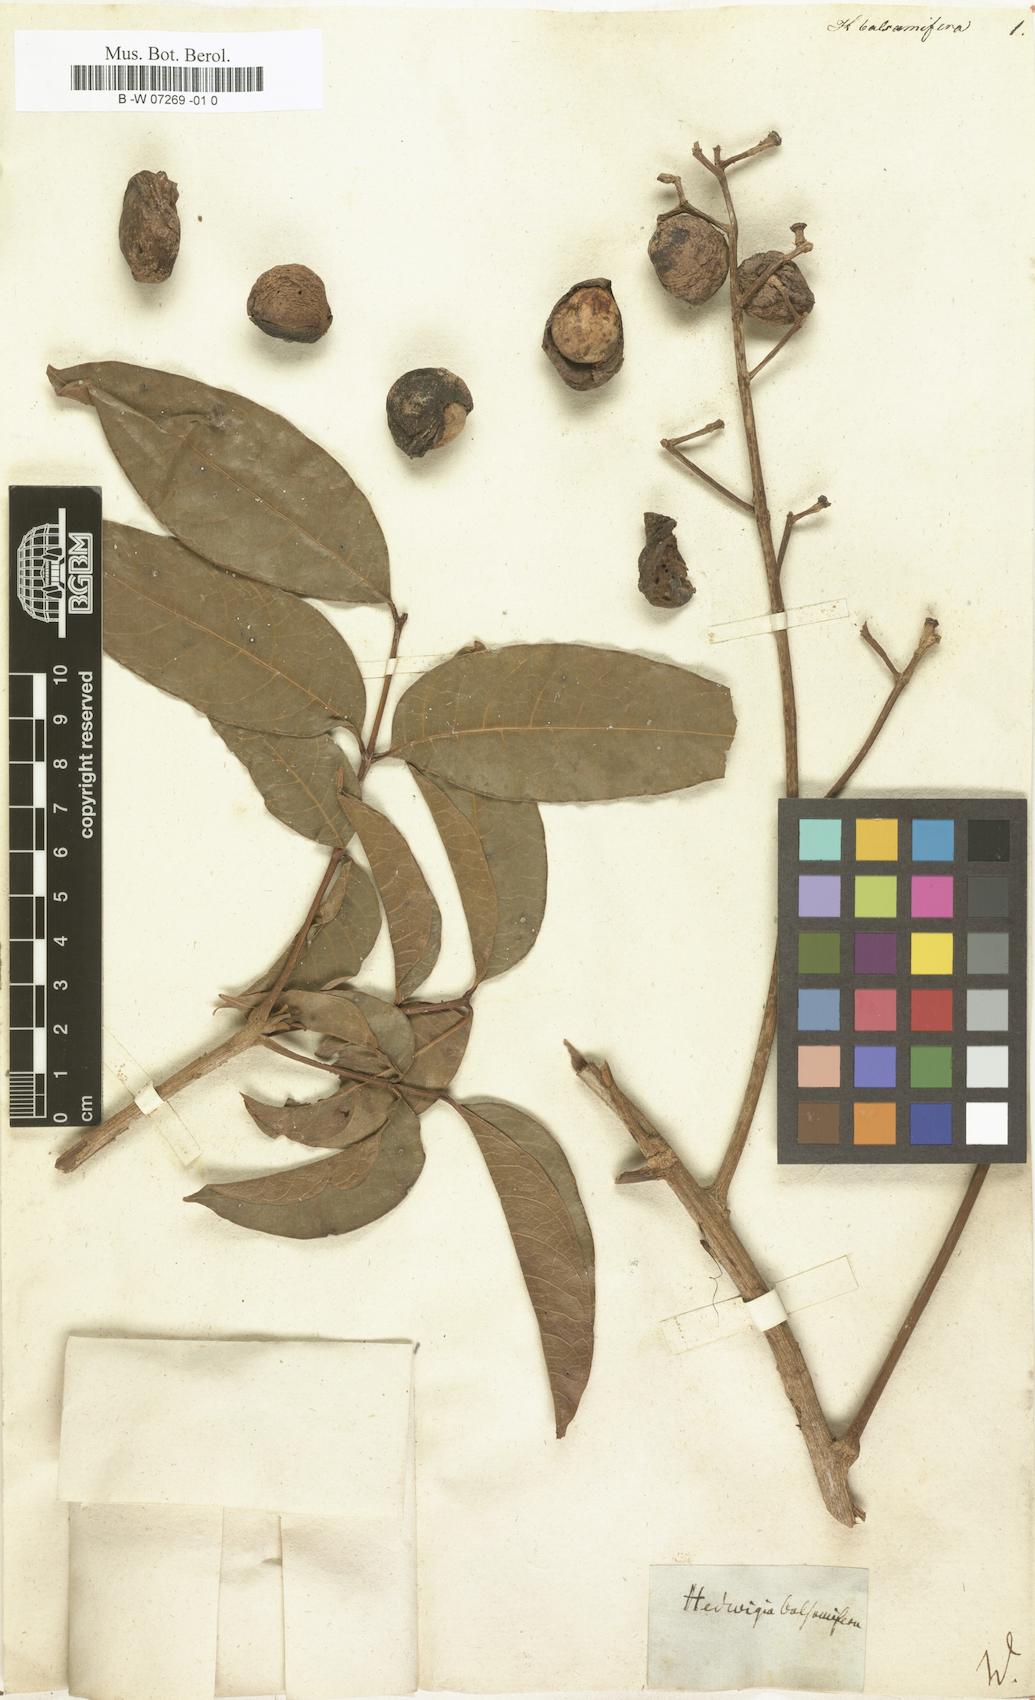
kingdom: Plantae
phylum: Tracheophyta
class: Magnoliopsida
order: Sapindales
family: Burseraceae
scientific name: Burseraceae
